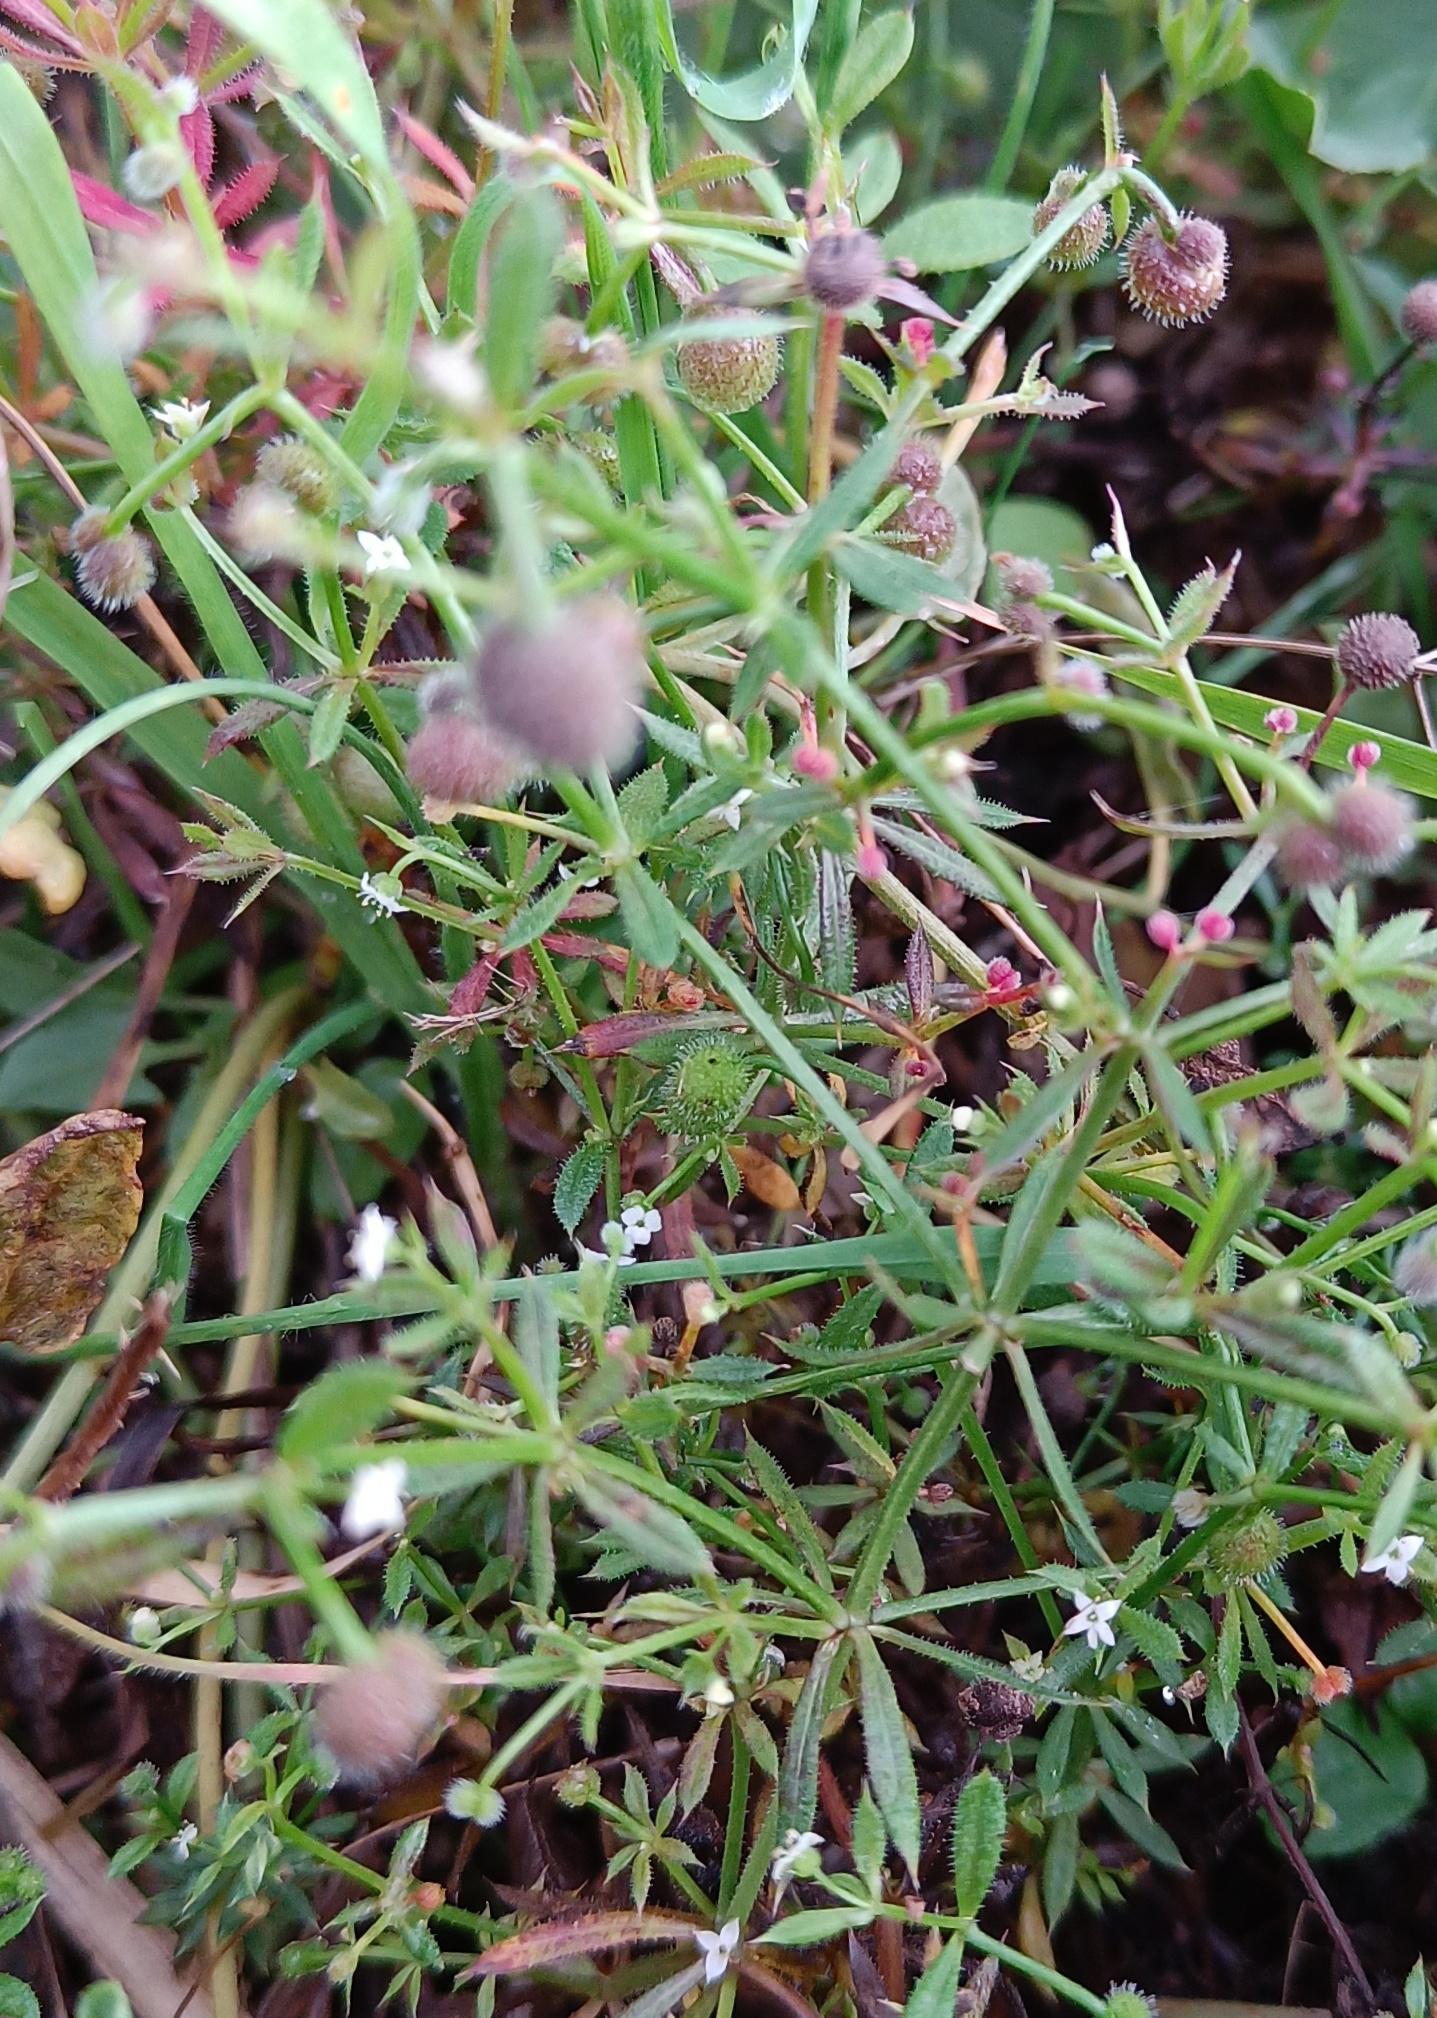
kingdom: Plantae
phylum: Tracheophyta
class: Magnoliopsida
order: Gentianales
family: Rubiaceae
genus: Galium
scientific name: Galium aparine
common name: Burre-snerre
